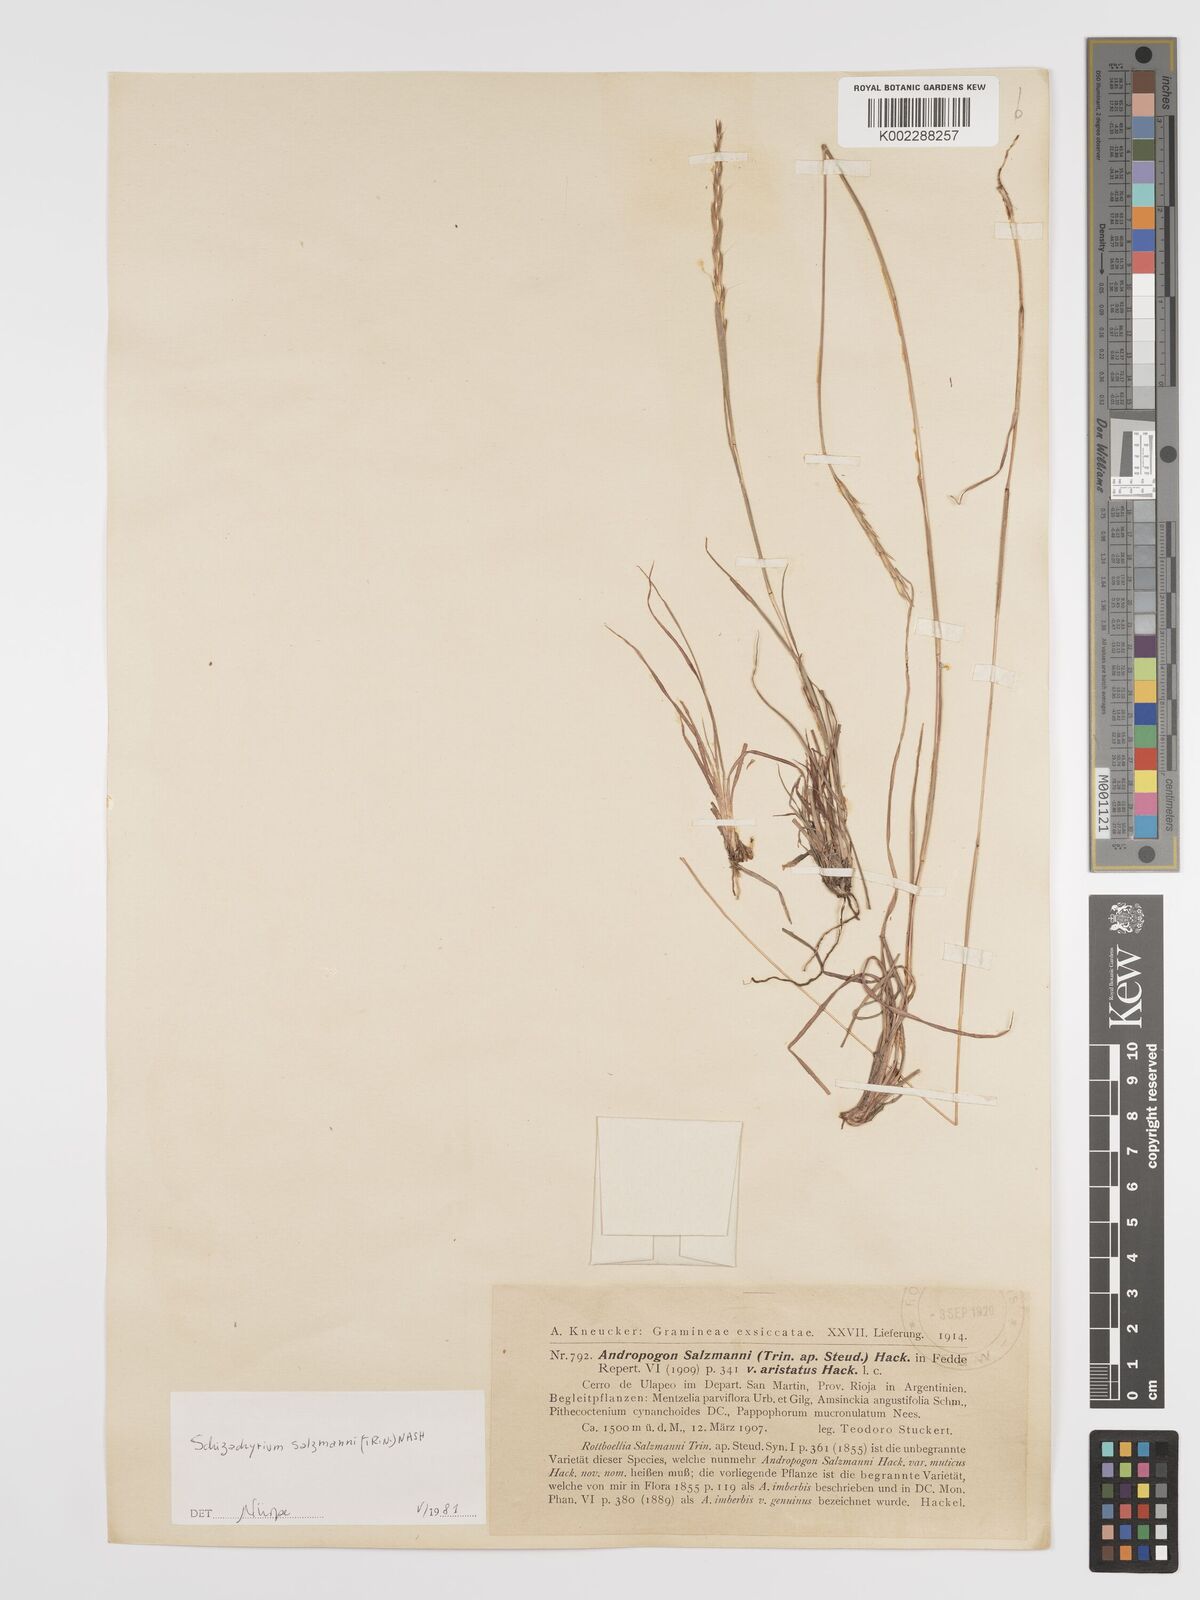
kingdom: Plantae
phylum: Tracheophyta
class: Liliopsida
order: Poales
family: Poaceae
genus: Andropogon
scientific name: Andropogon salzmannii
